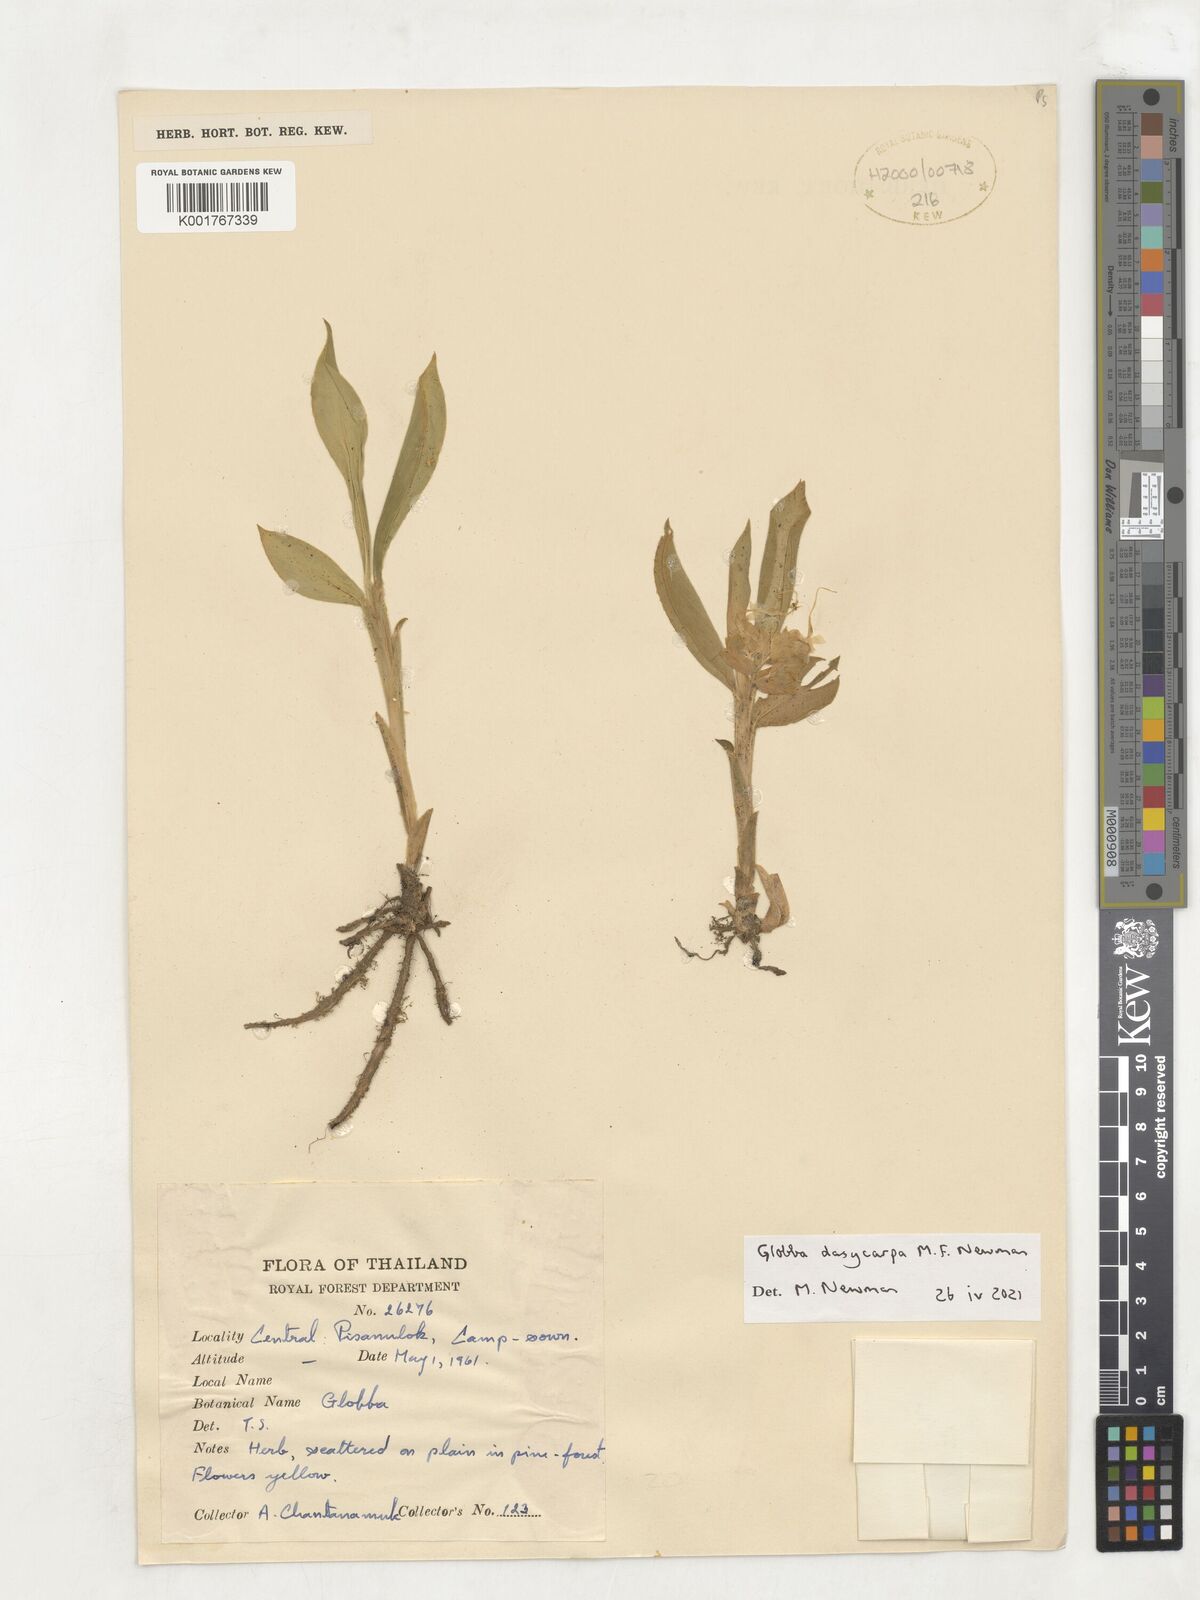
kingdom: Plantae
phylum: Tracheophyta
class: Liliopsida
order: Zingiberales
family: Zingiberaceae
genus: Globba
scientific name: Globba
